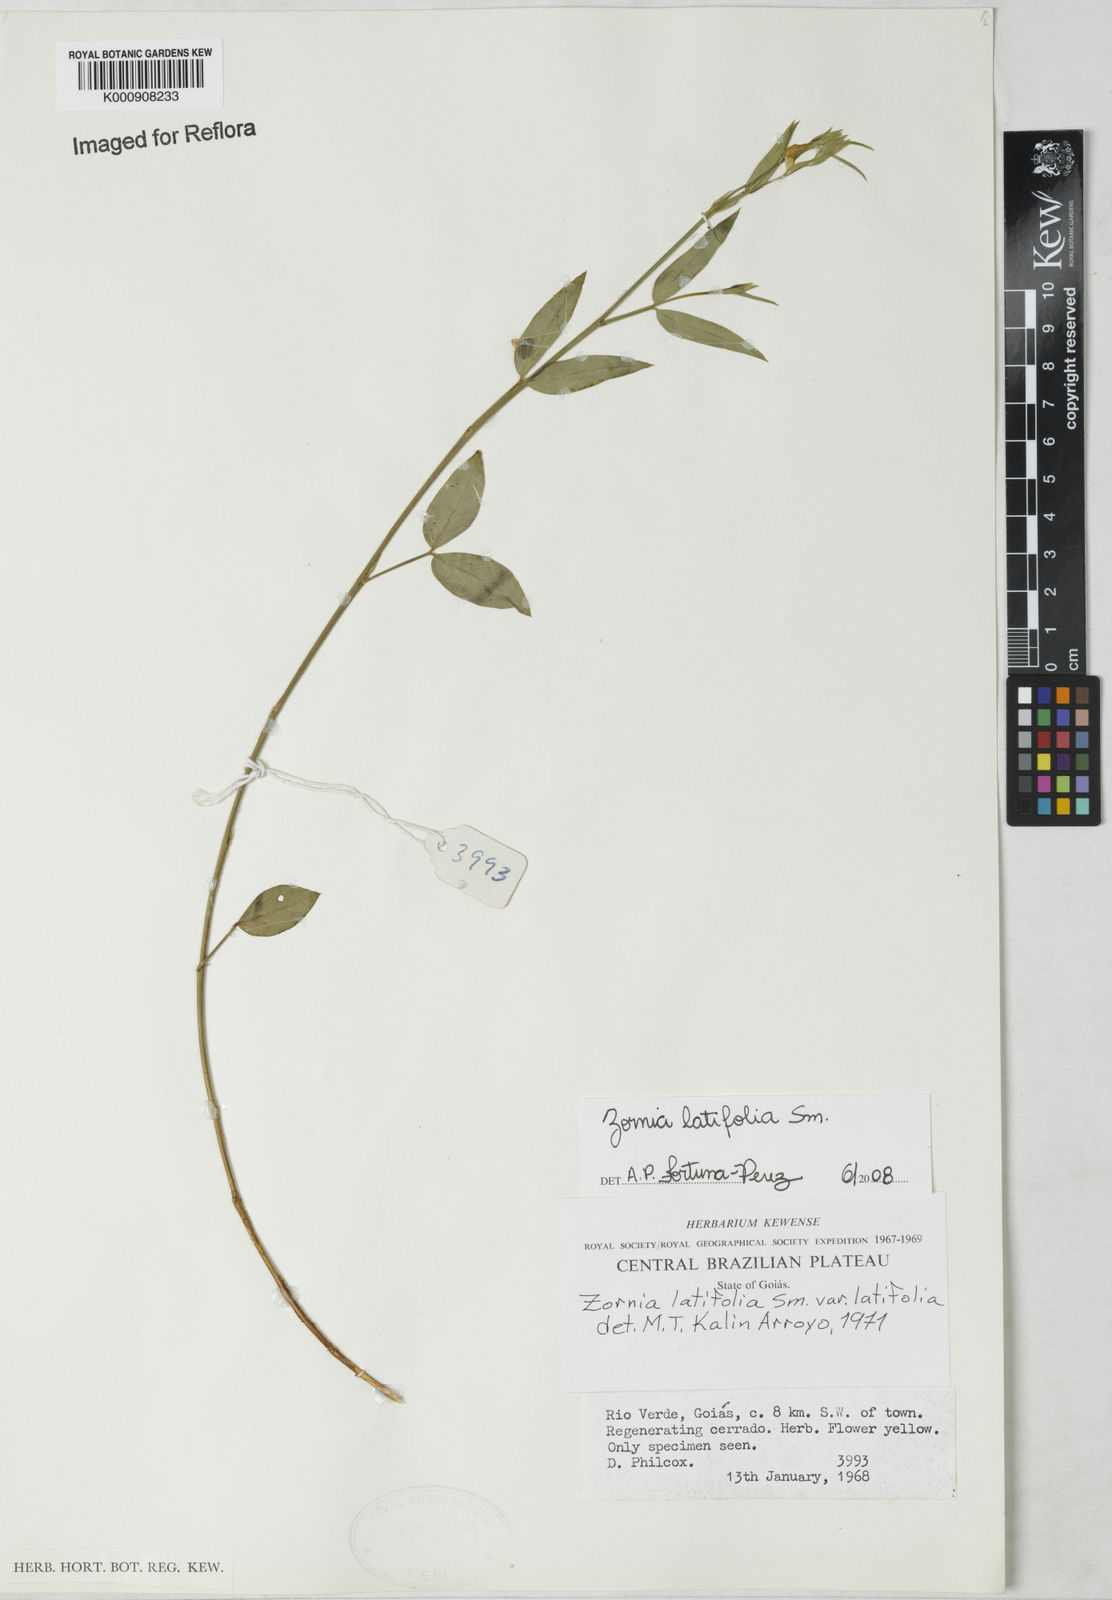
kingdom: Plantae
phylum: Tracheophyta
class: Magnoliopsida
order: Fabales
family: Fabaceae
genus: Zornia
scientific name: Zornia latifolia
